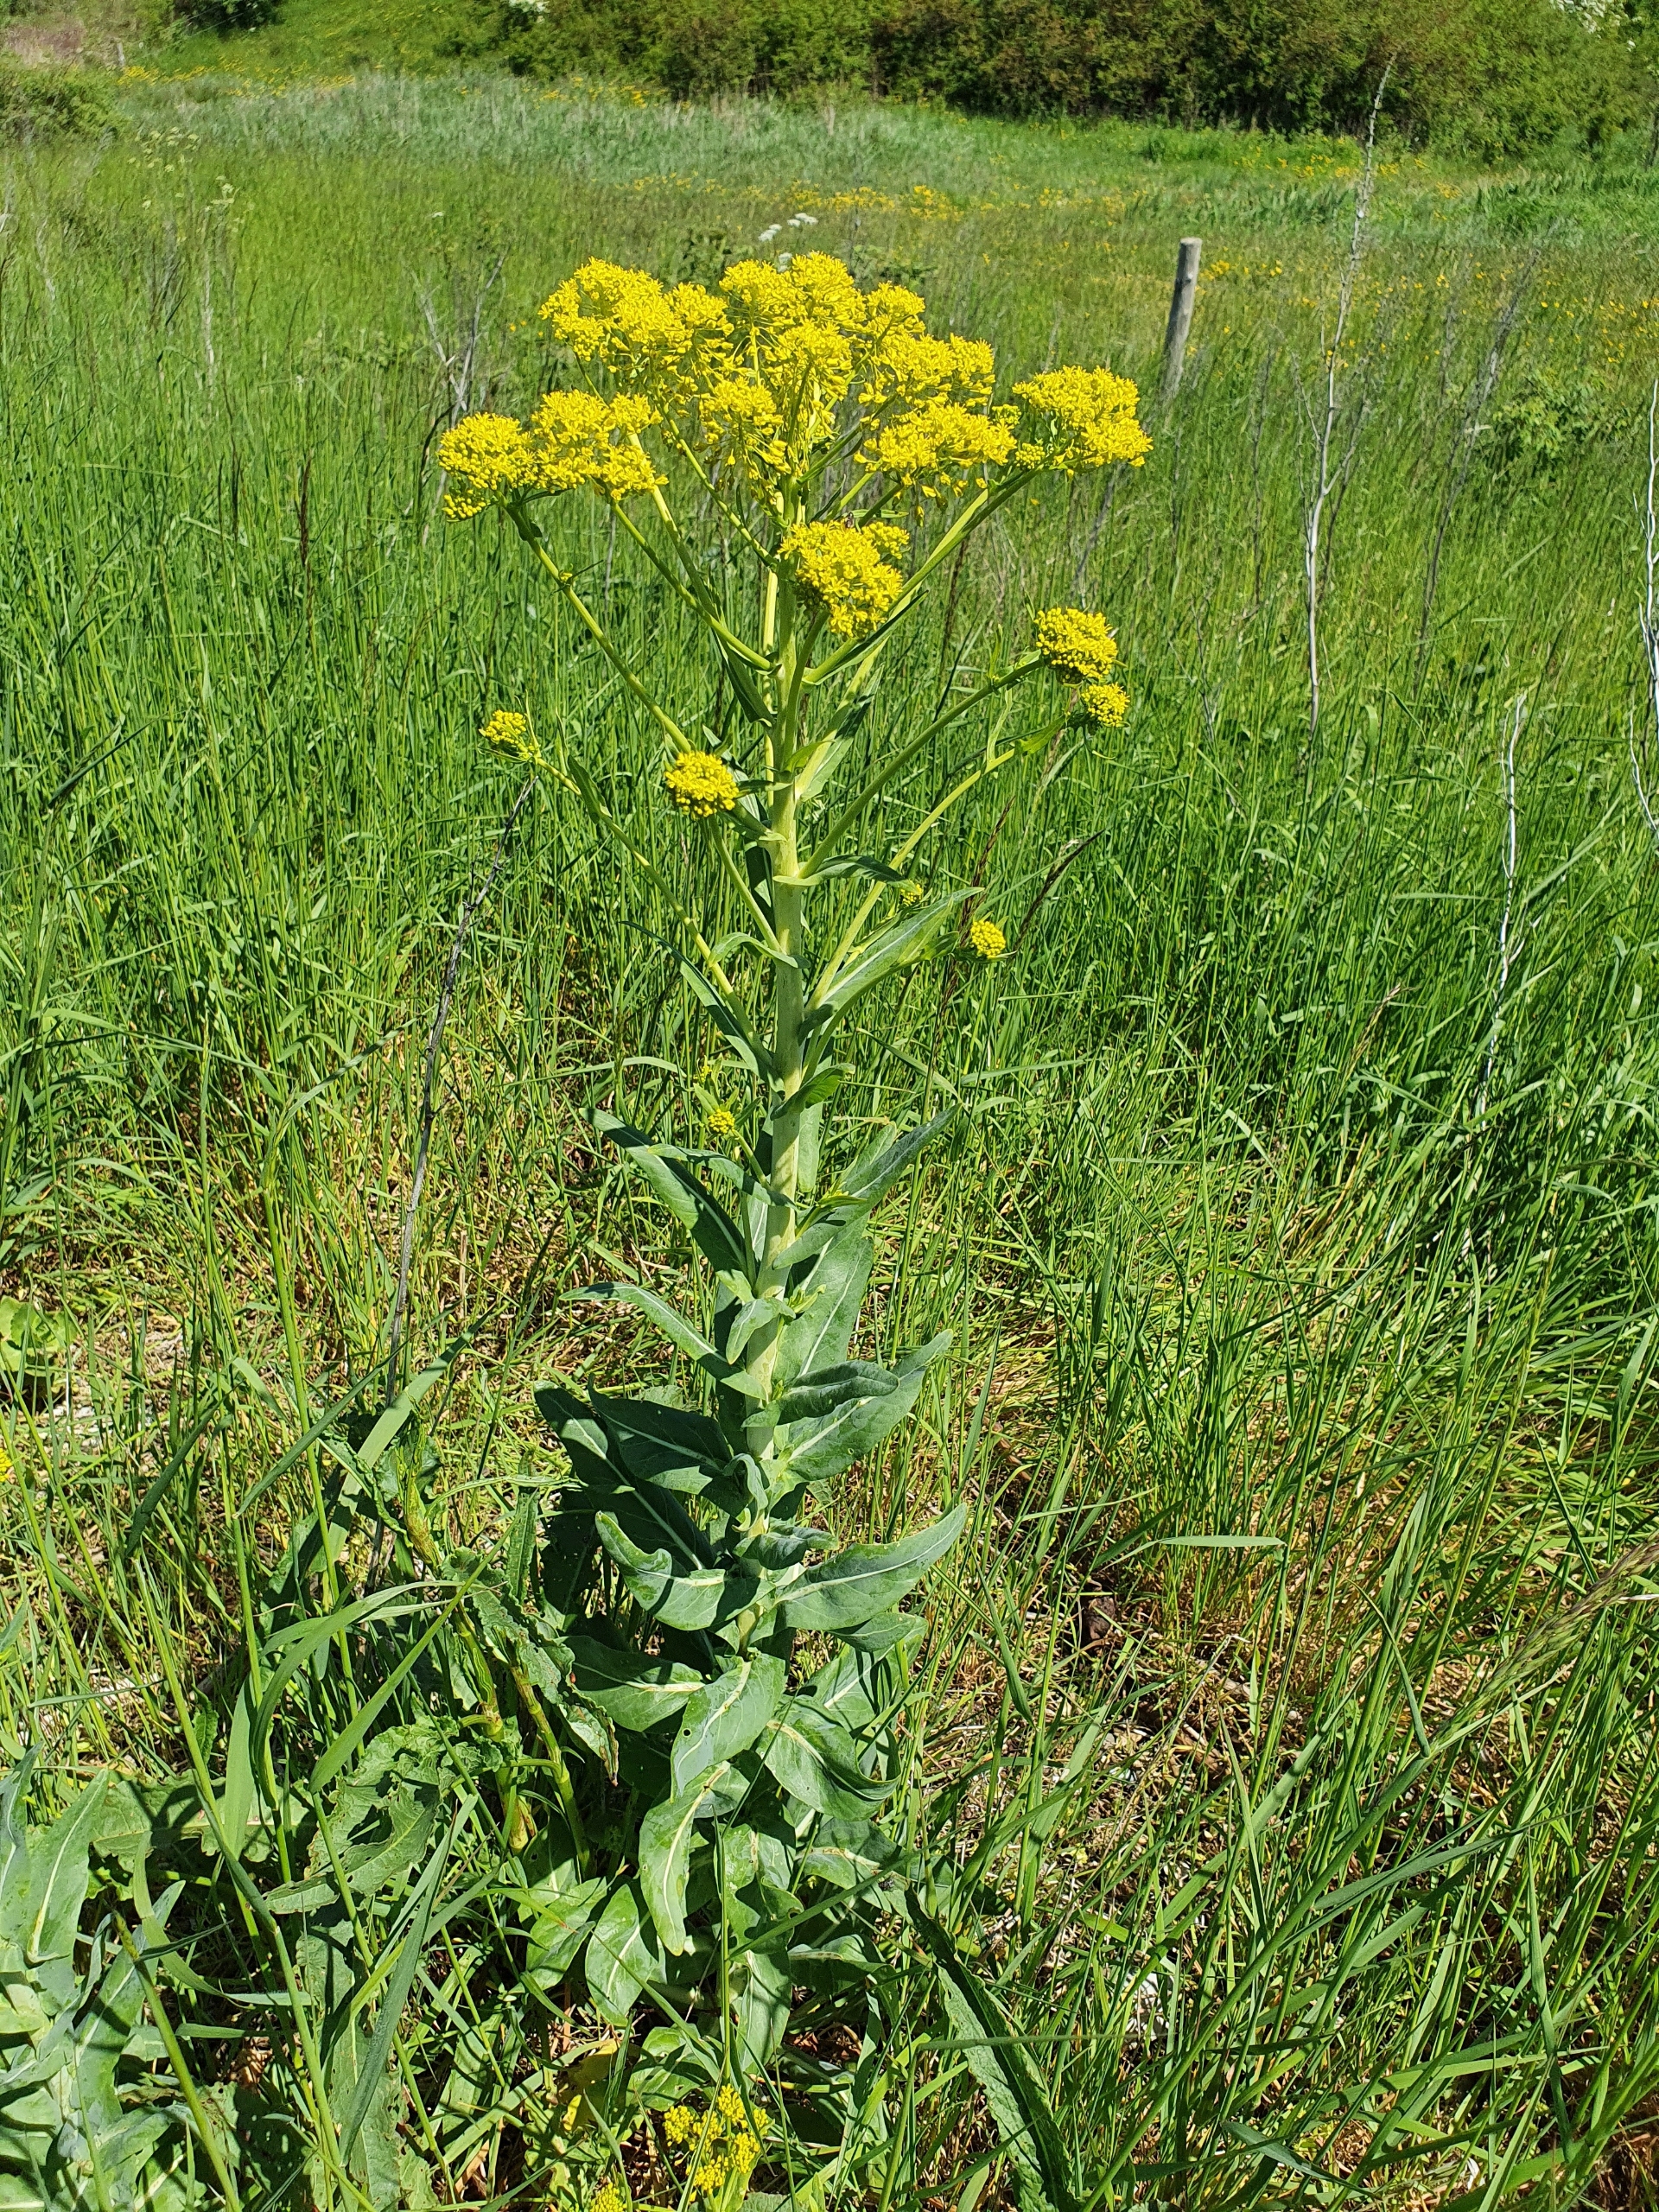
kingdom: Plantae
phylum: Tracheophyta
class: Magnoliopsida
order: Brassicales
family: Brassicaceae
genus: Isatis
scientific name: Isatis tinctoria
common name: Farve-vajd
